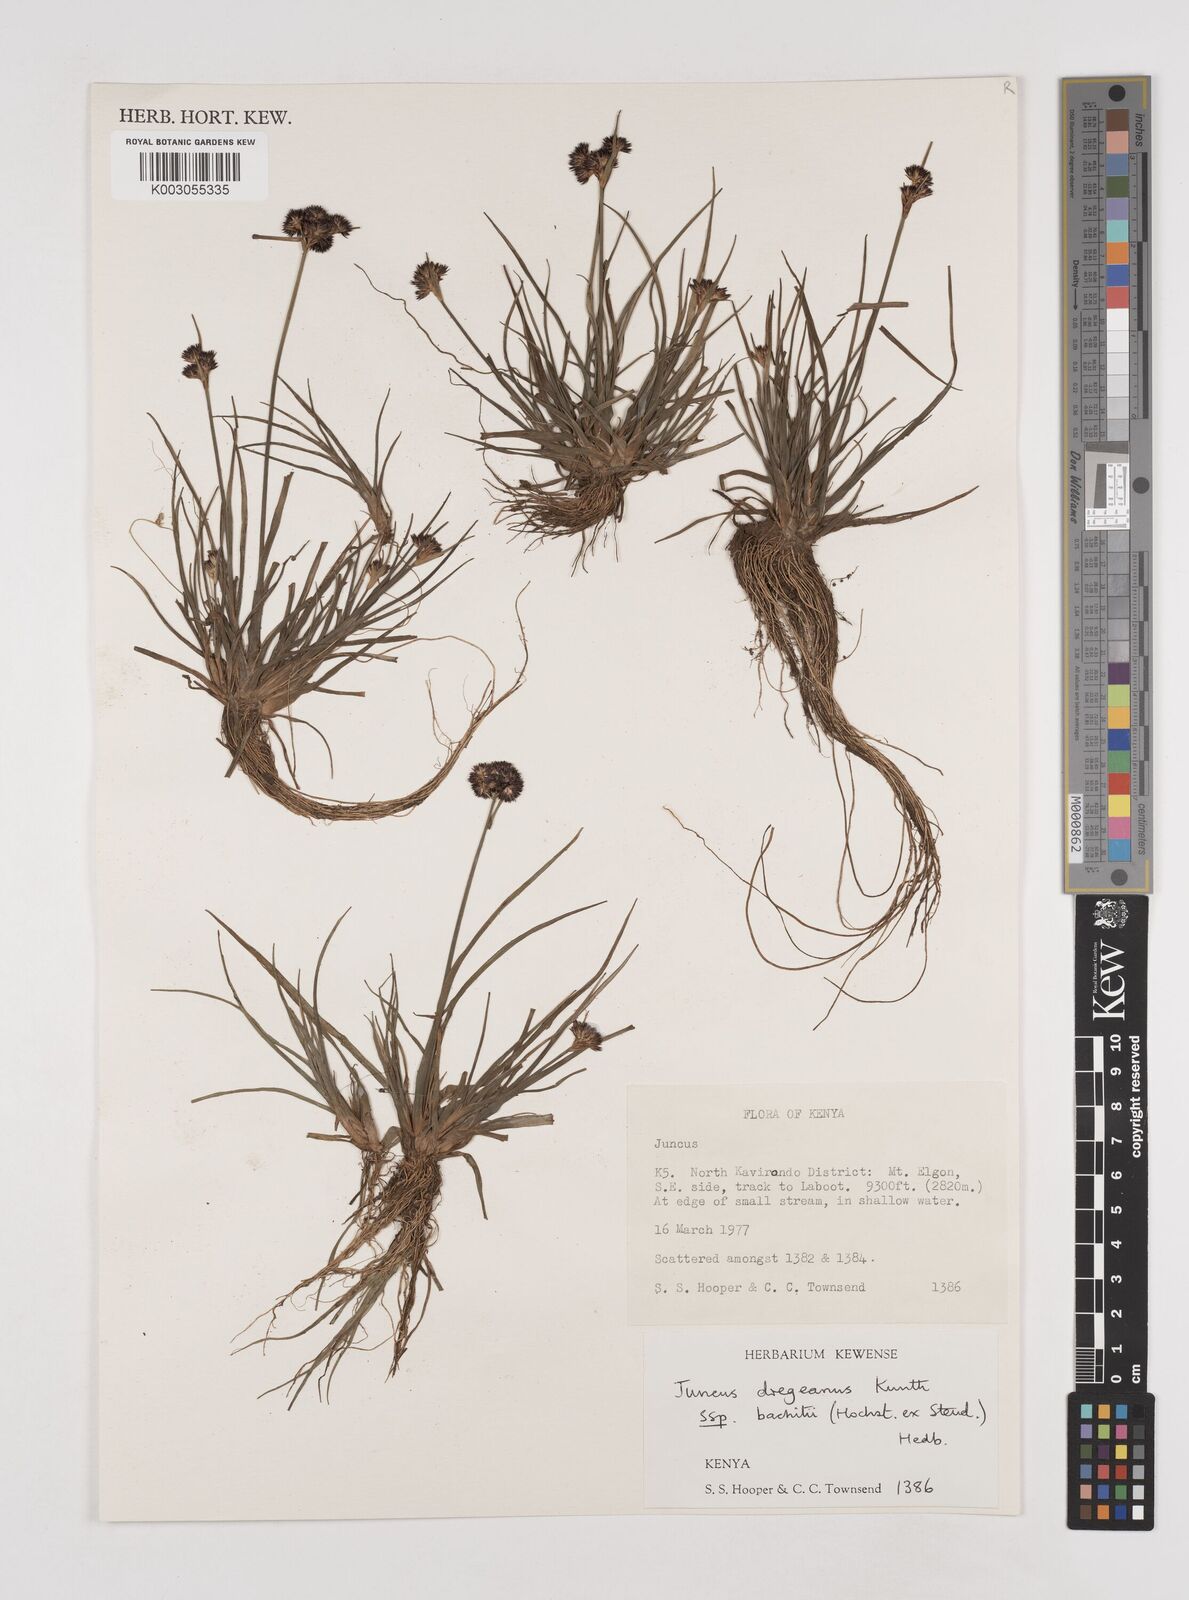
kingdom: Plantae
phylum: Tracheophyta
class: Liliopsida
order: Poales
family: Juncaceae
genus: Juncus
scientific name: Juncus dregeanus
